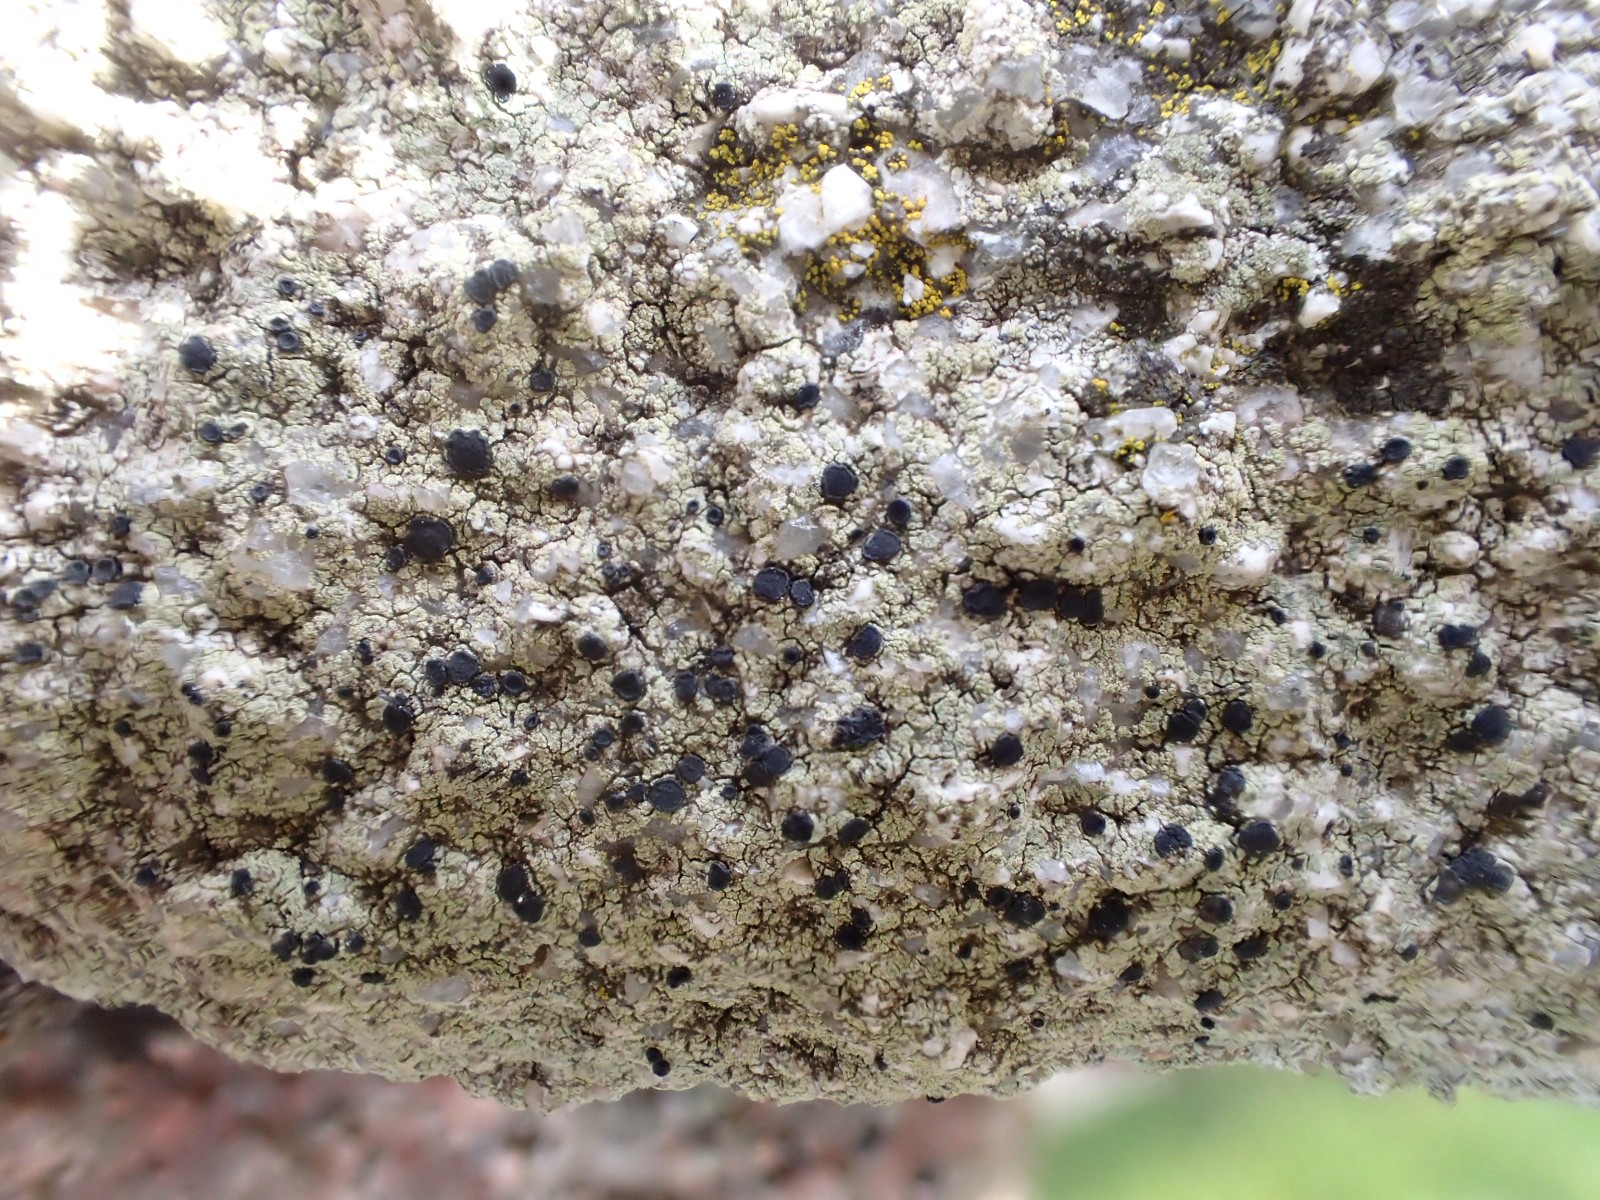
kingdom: Fungi
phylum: Ascomycota
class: Lecanoromycetes
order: Lecanorales
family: Lecanoraceae
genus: Lecidella
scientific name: Lecidella scabra
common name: skurvet skivelav
